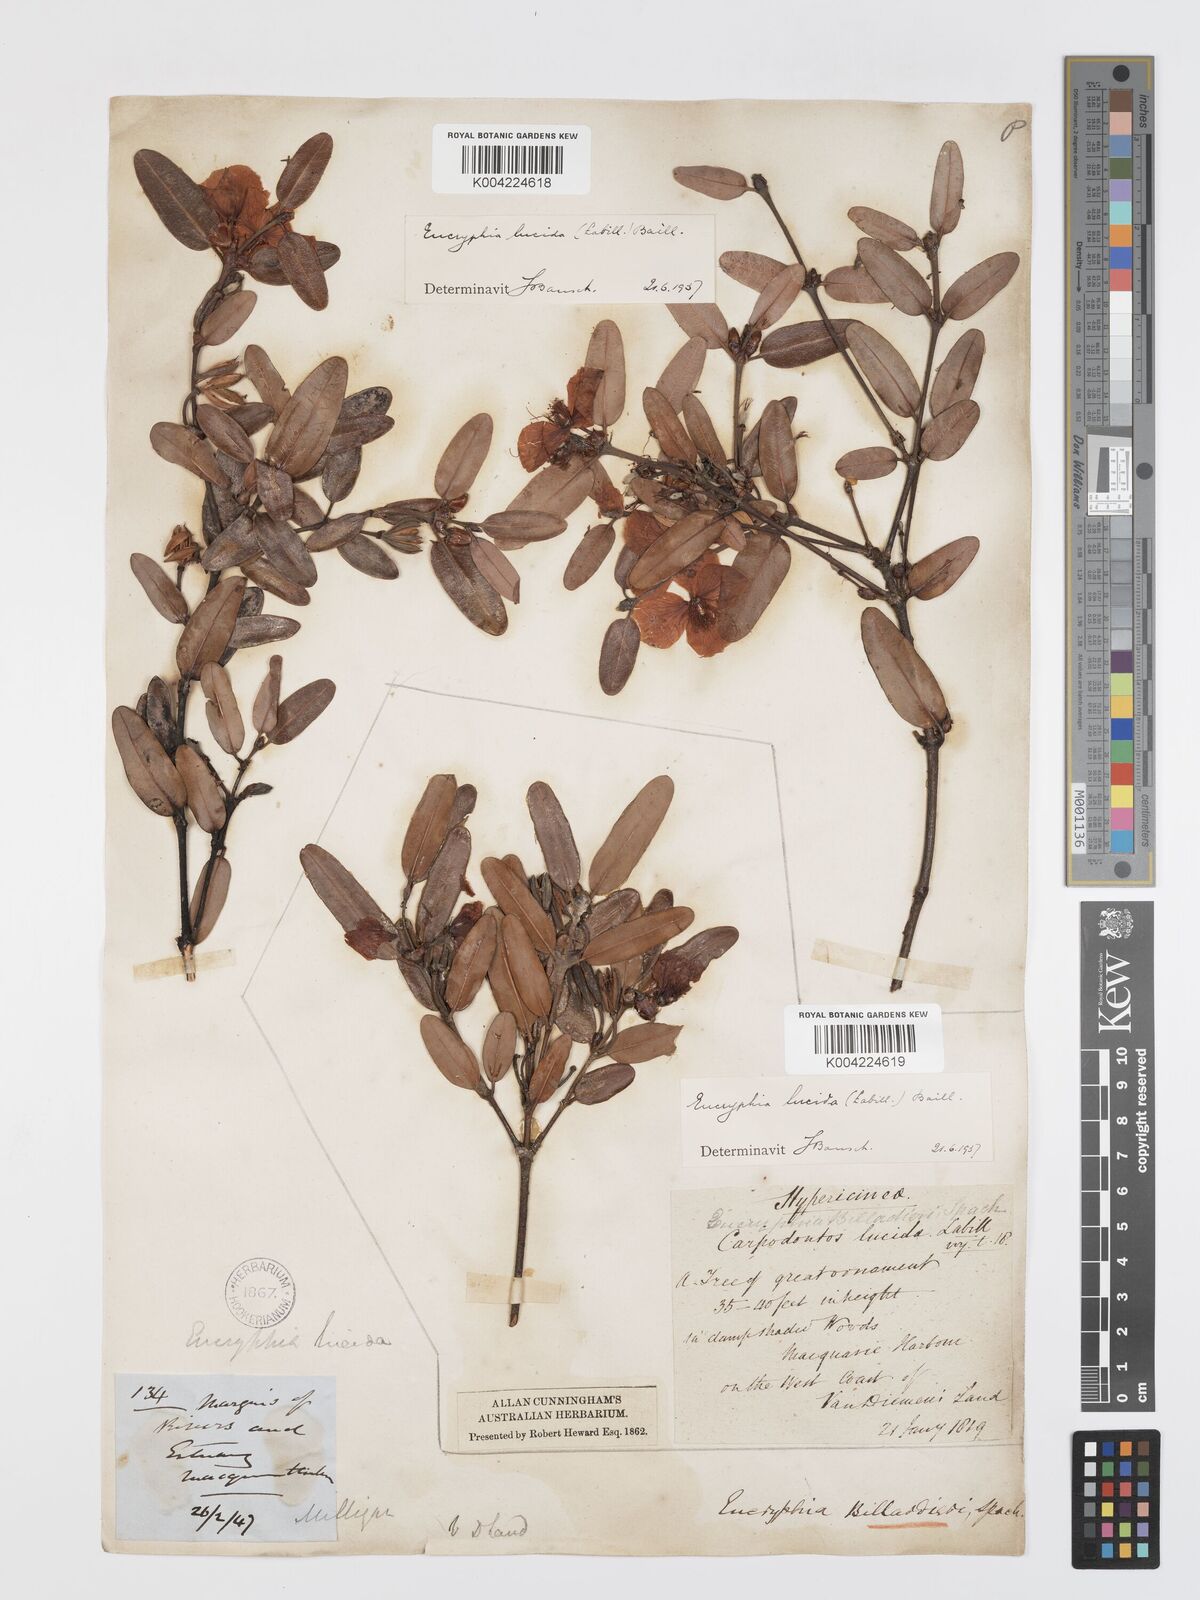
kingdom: Plantae
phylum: Tracheophyta
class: Magnoliopsida
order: Oxalidales
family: Cunoniaceae
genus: Eucryphia
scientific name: Eucryphia lucida
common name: Leatherwood
